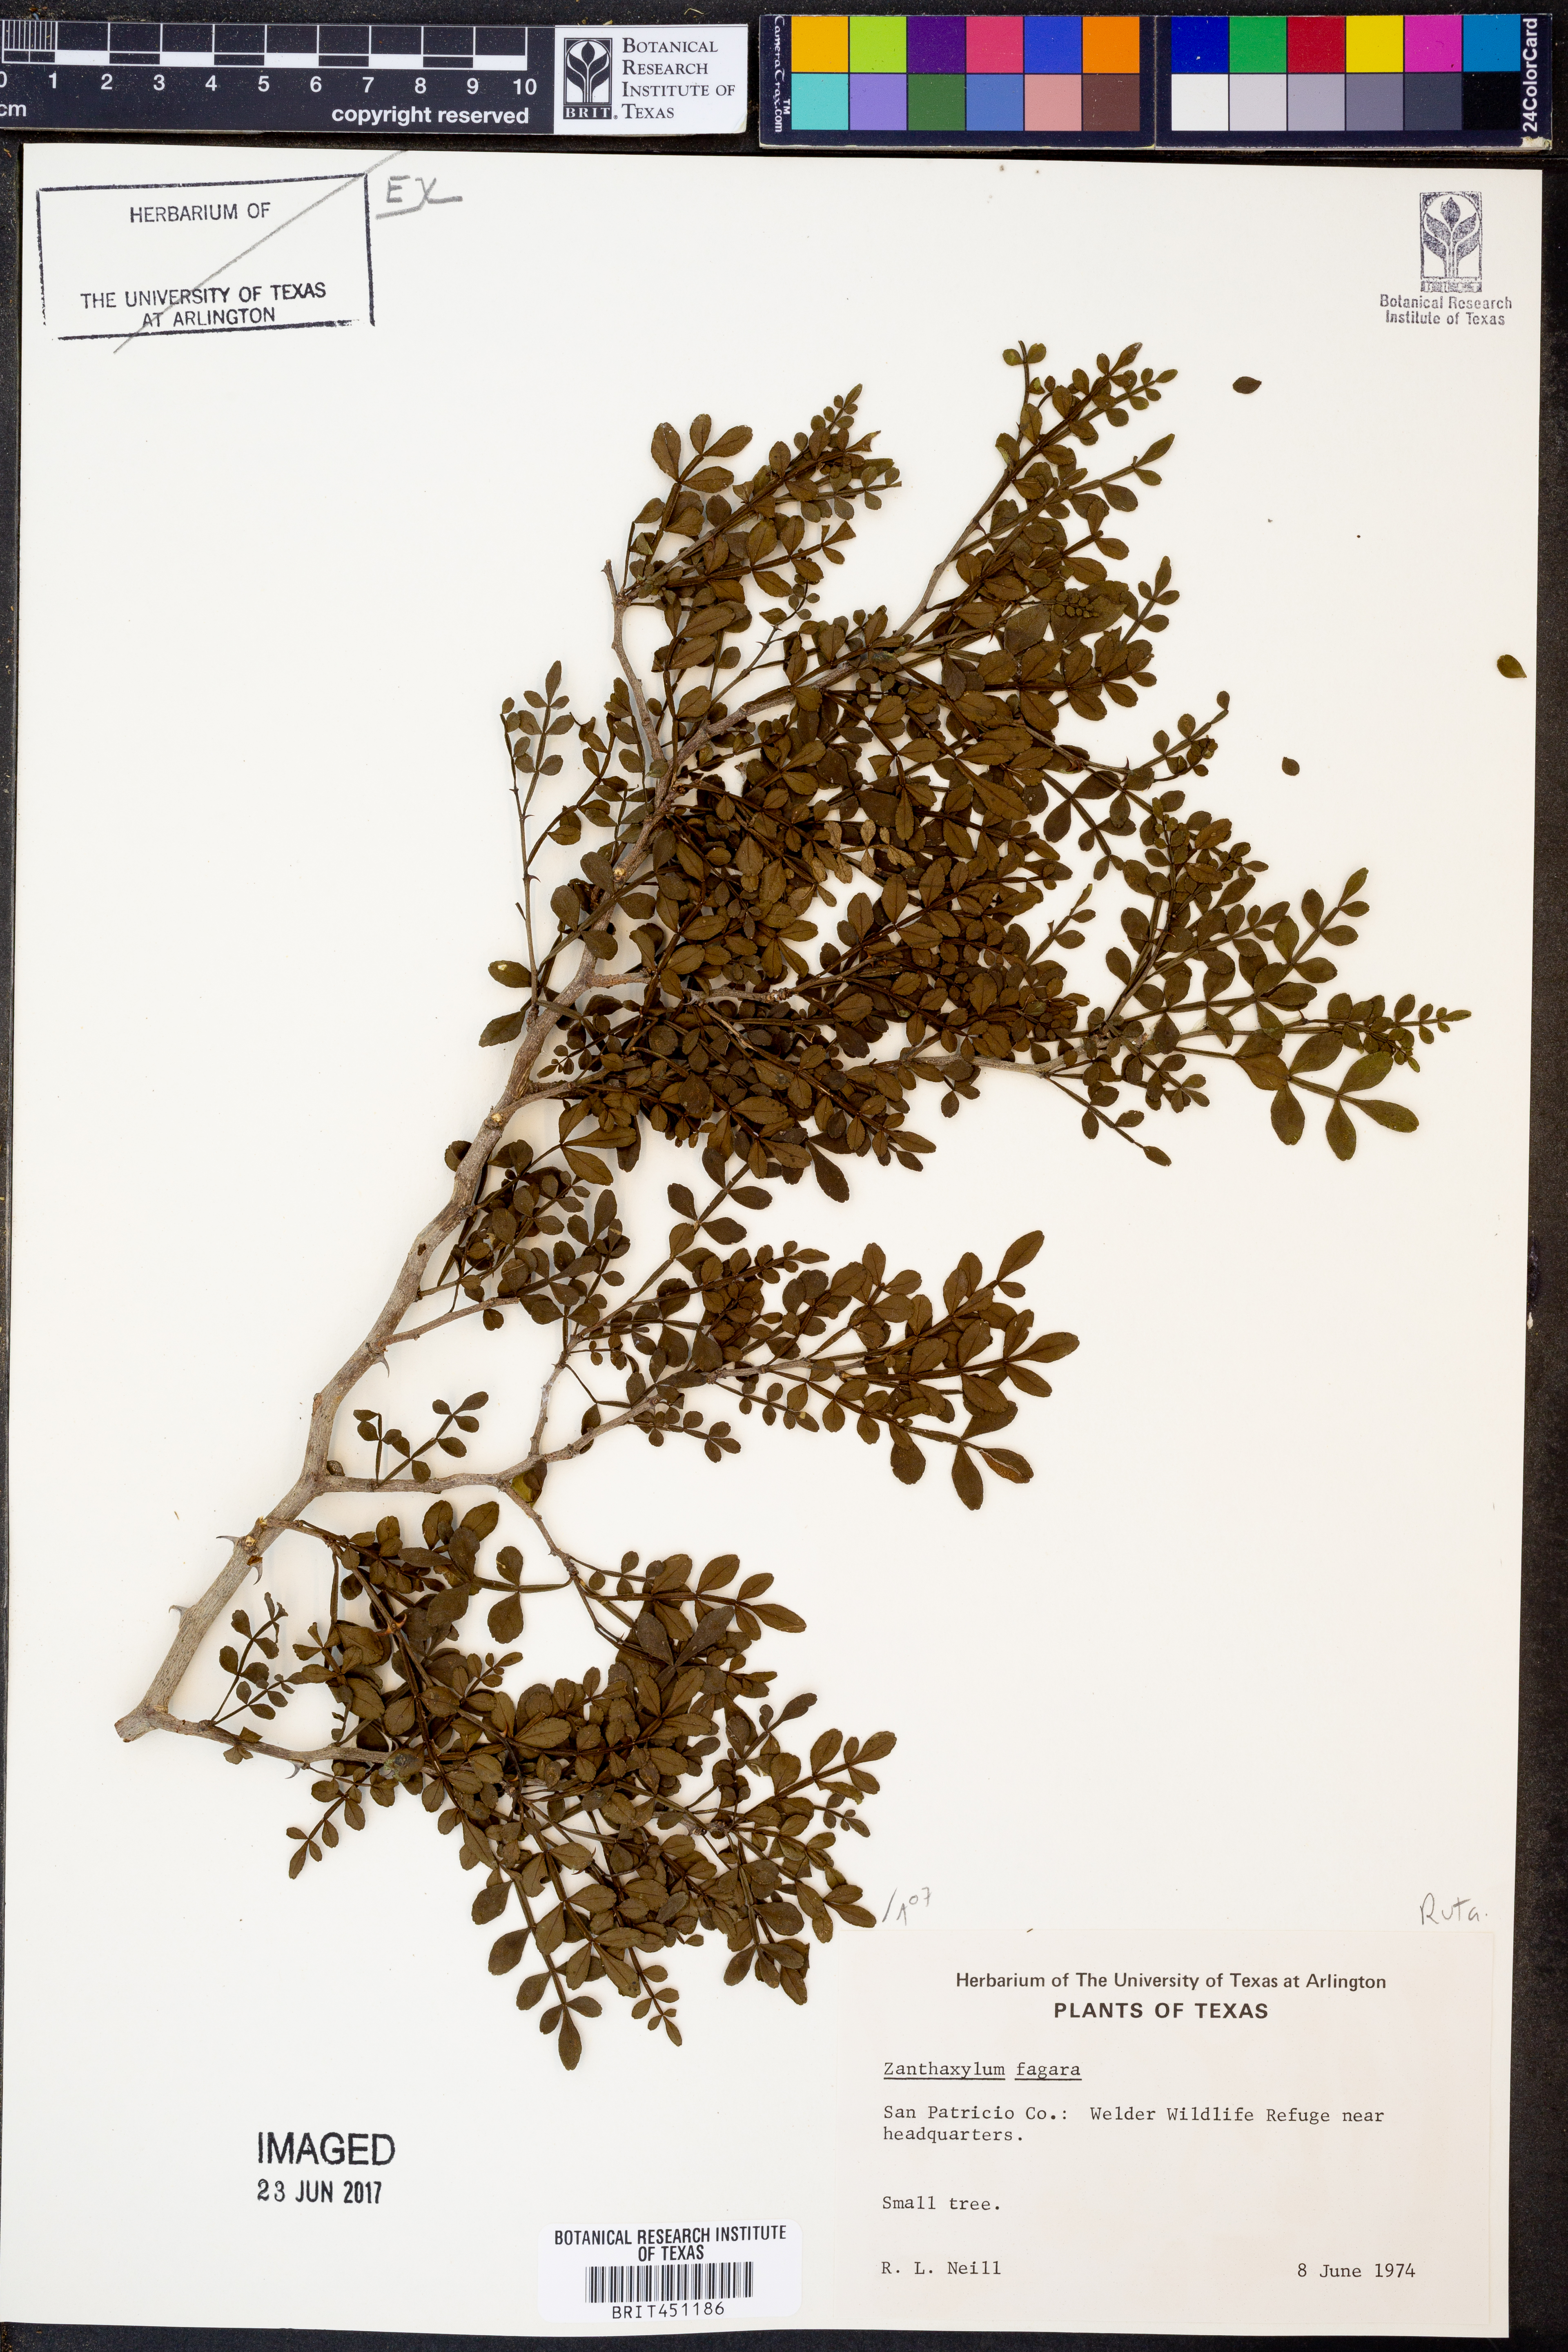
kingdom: Plantae
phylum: Tracheophyta
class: Magnoliopsida
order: Sapindales
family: Rutaceae
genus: Zanthoxylum
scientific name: Zanthoxylum fagara
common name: Lime prickly-ash
